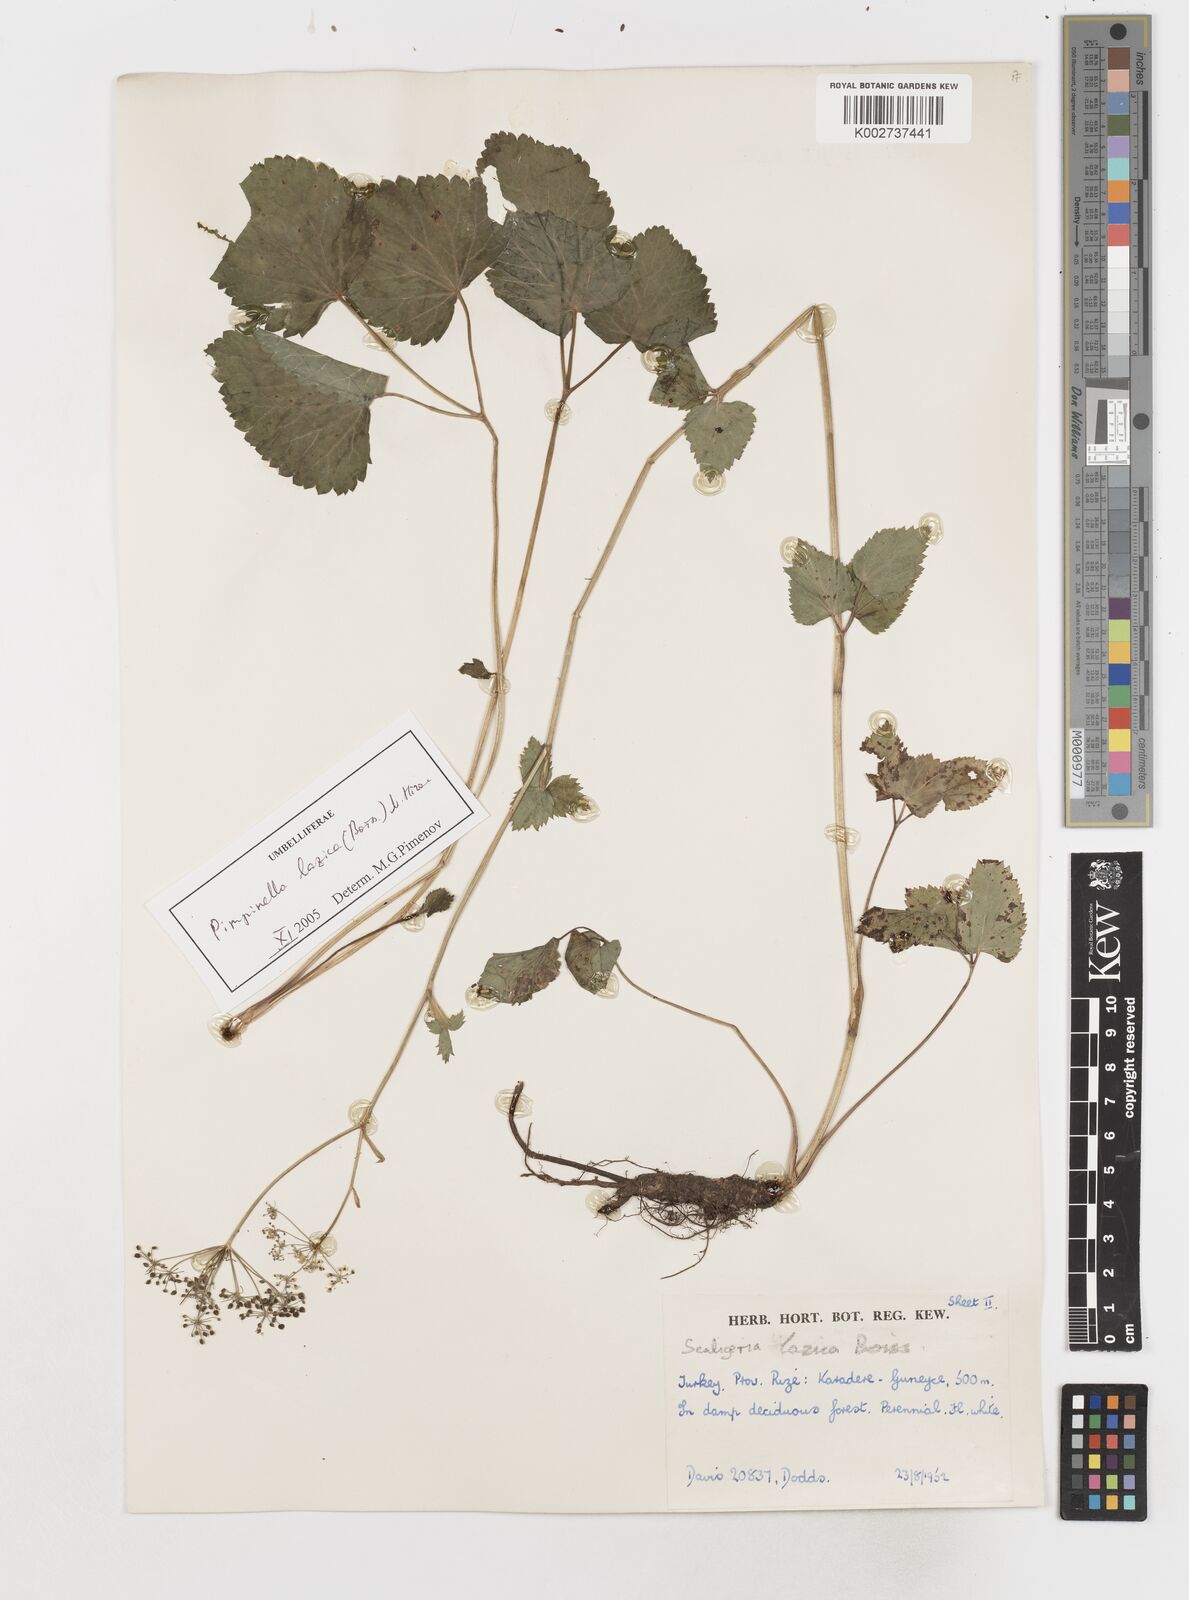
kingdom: Plantae
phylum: Tracheophyta
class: Magnoliopsida
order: Apiales
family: Apiaceae
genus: Scaligeria
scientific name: Scaligeria lazica
